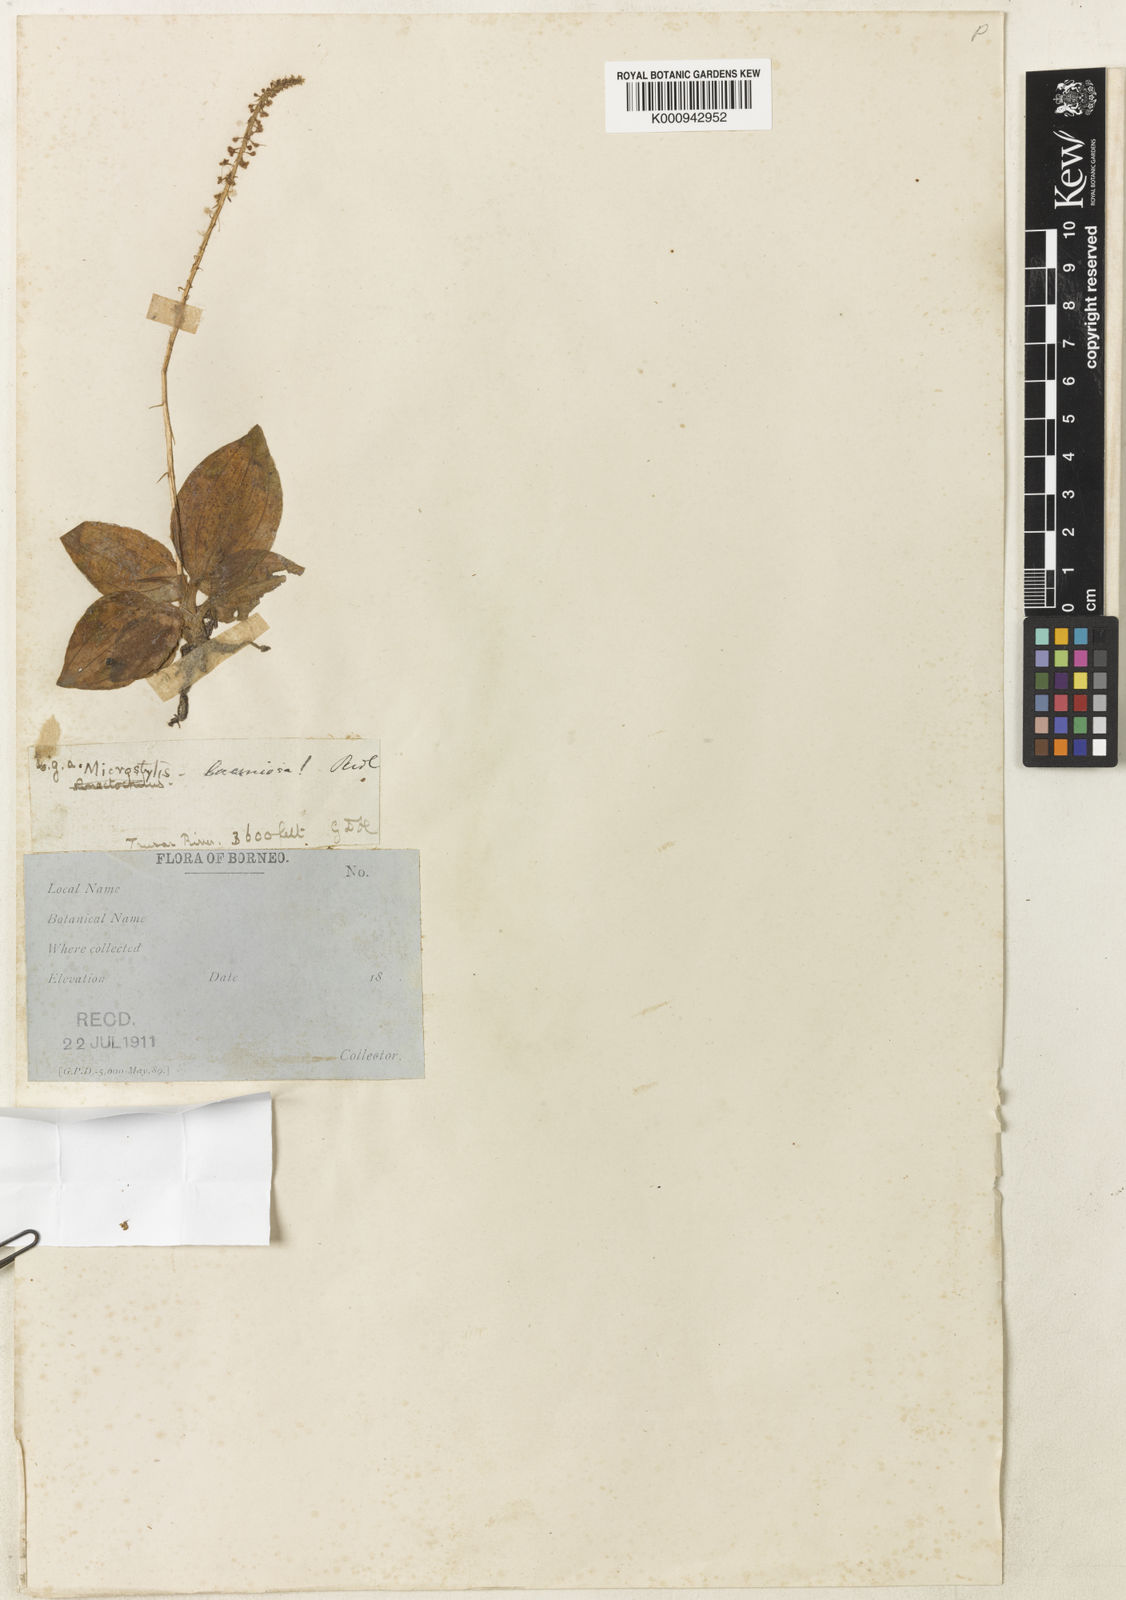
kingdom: Plantae
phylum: Tracheophyta
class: Liliopsida
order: Asparagales
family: Orchidaceae
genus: Crepidium
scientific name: Crepidium laciniosum
